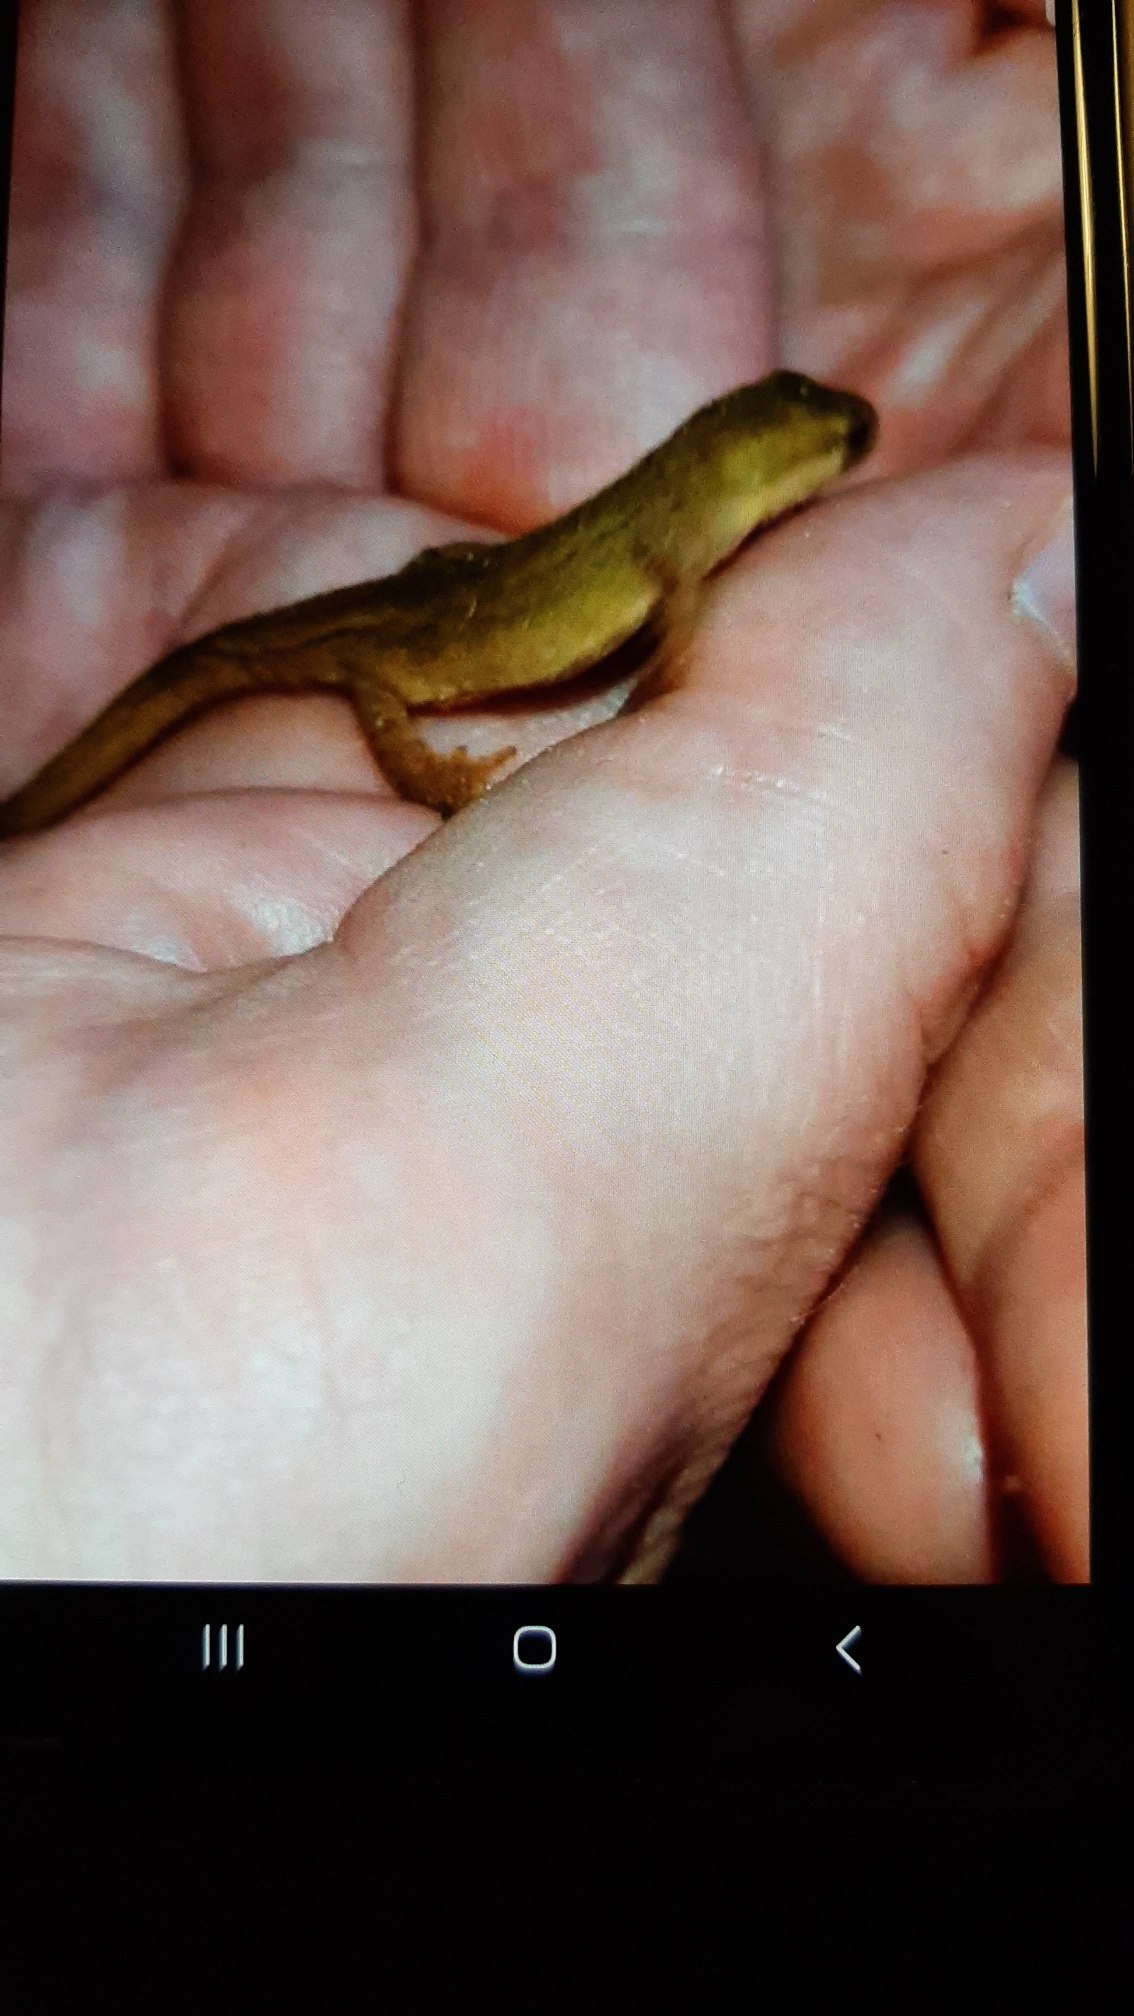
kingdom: Animalia
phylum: Chordata
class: Amphibia
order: Caudata
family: Salamandridae
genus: Lissotriton
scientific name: Lissotriton vulgaris
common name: Lille vandsalamander
